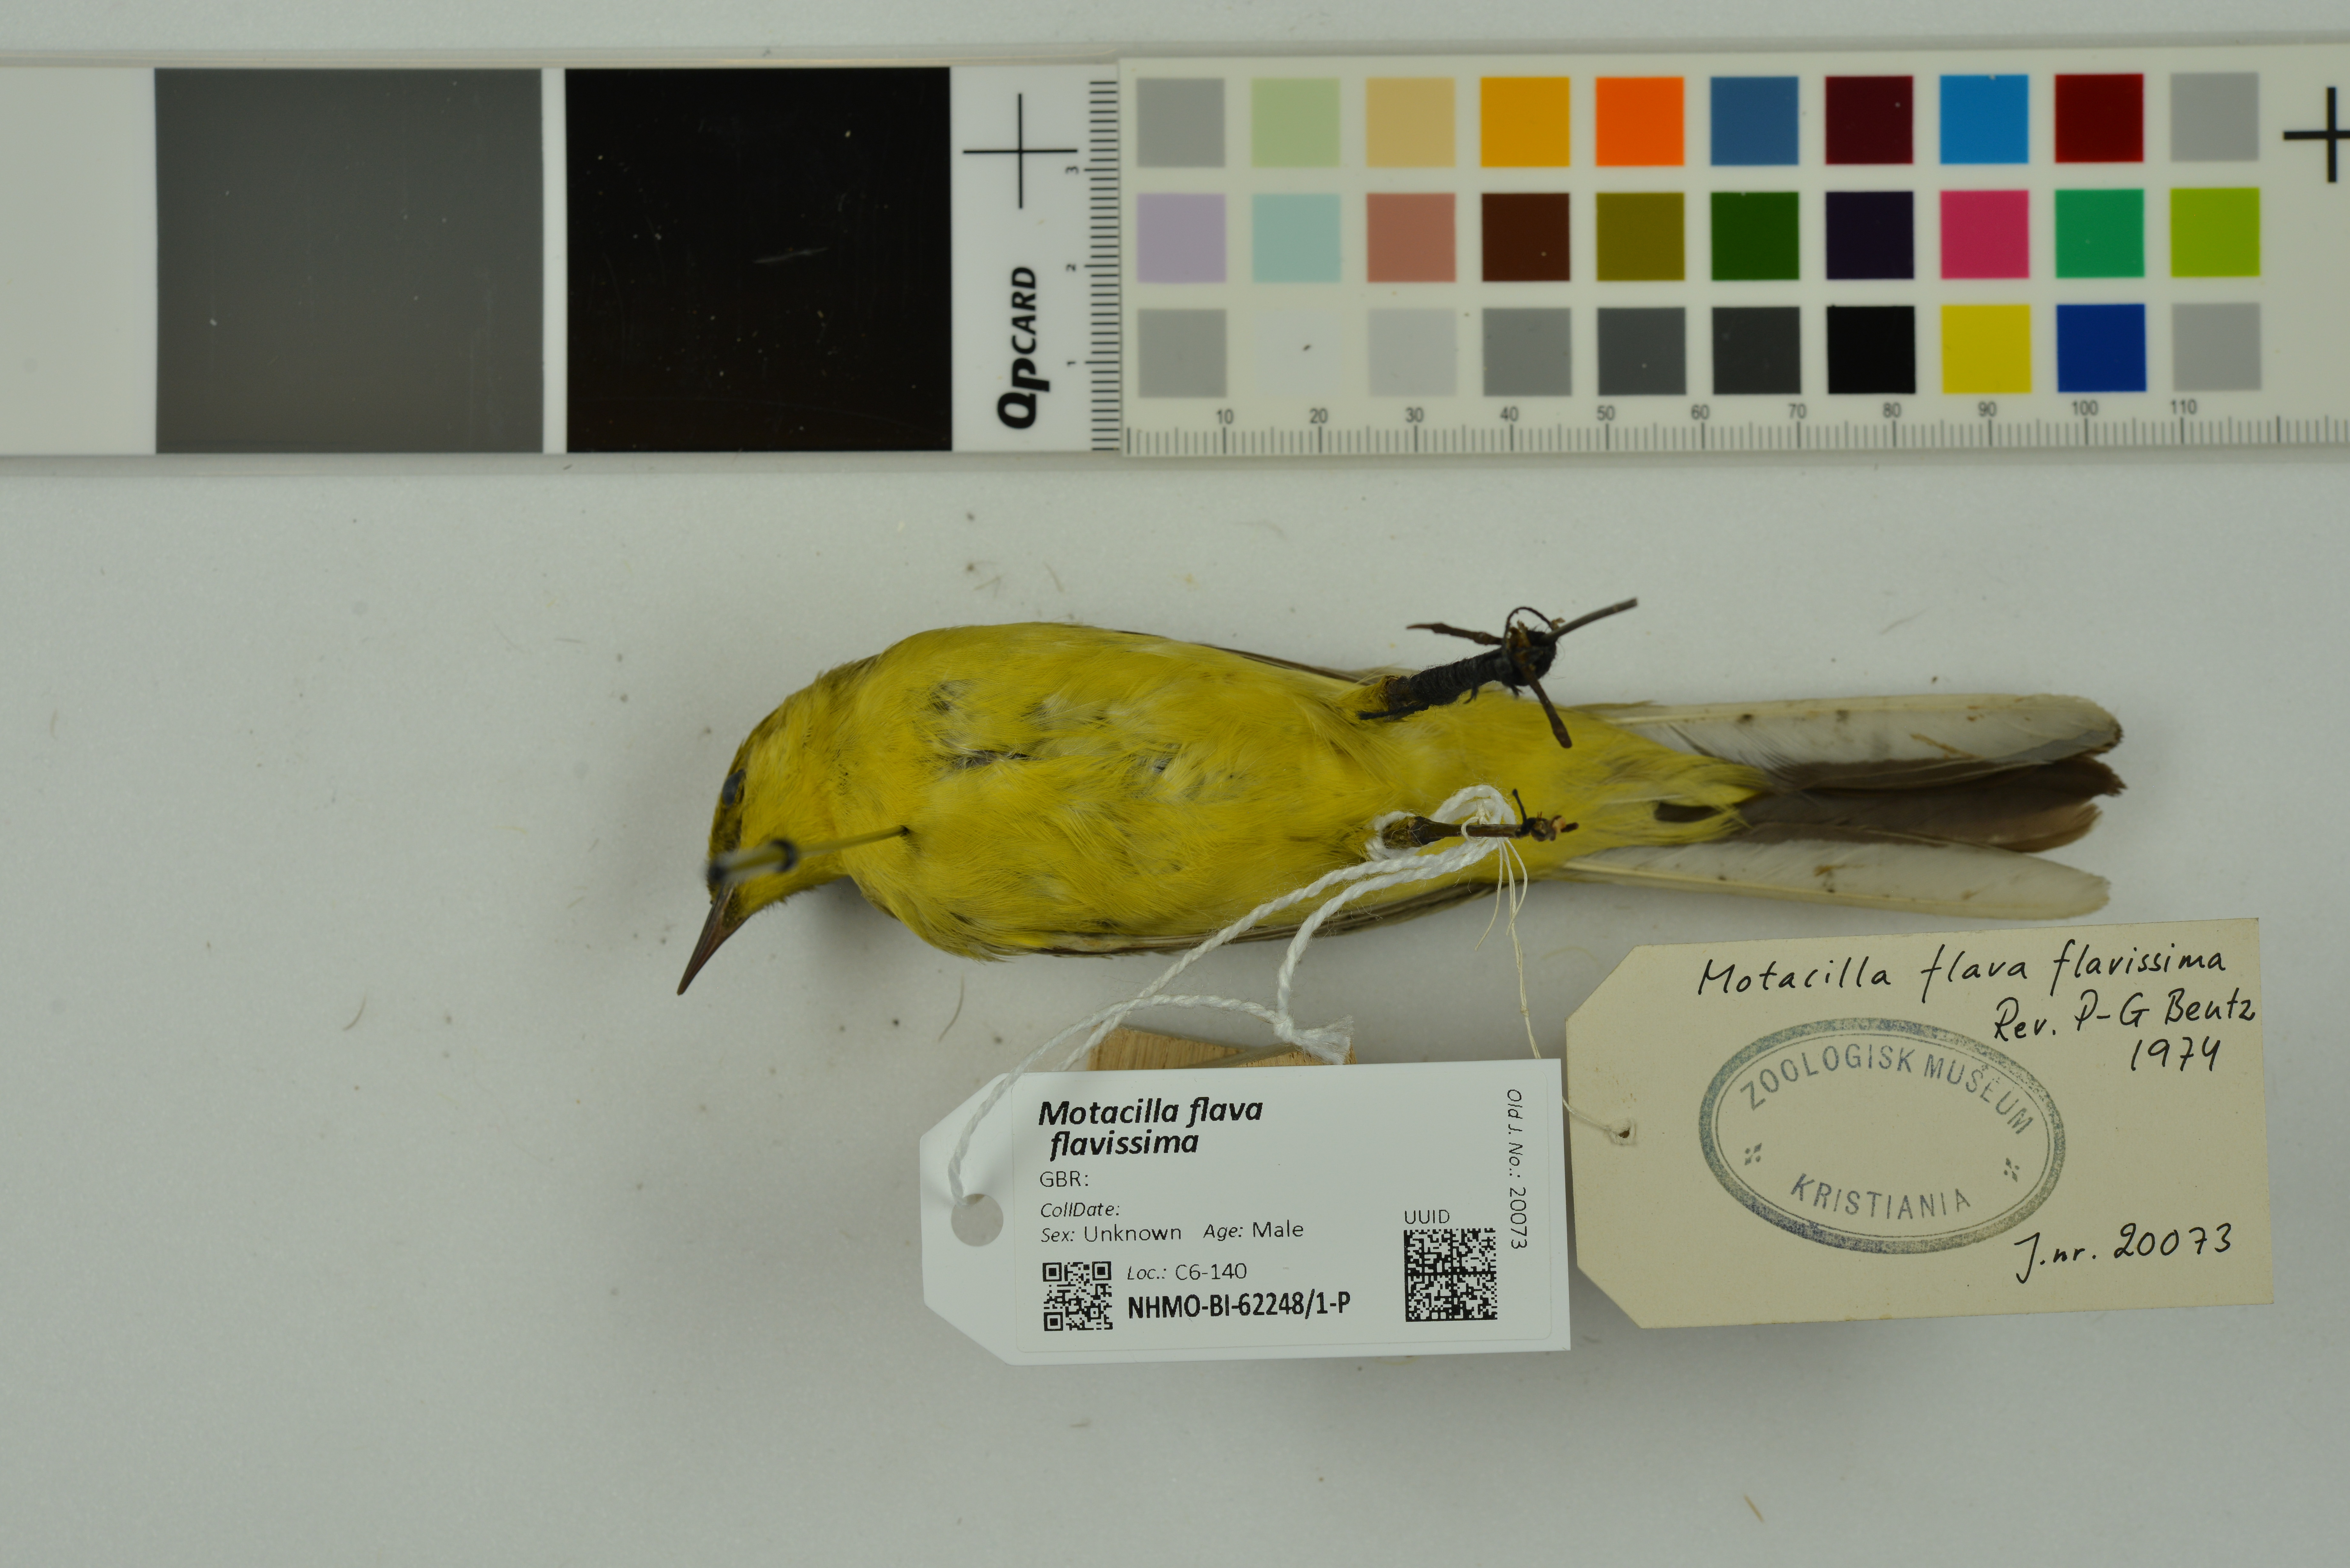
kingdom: Animalia
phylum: Chordata
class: Aves
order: Passeriformes
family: Motacillidae
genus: Motacilla
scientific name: Motacilla flava
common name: Western yellow wagtail
